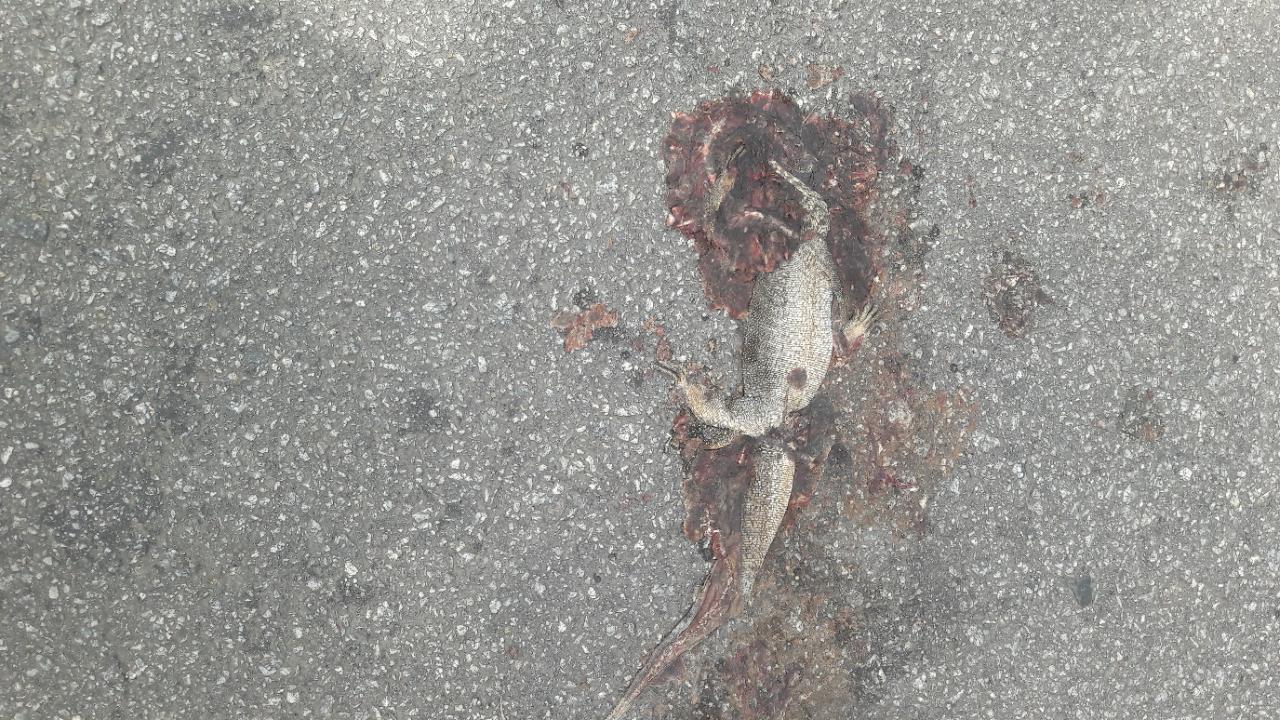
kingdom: Animalia
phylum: Chordata
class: Squamata
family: Lacertidae
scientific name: Lacertidae
